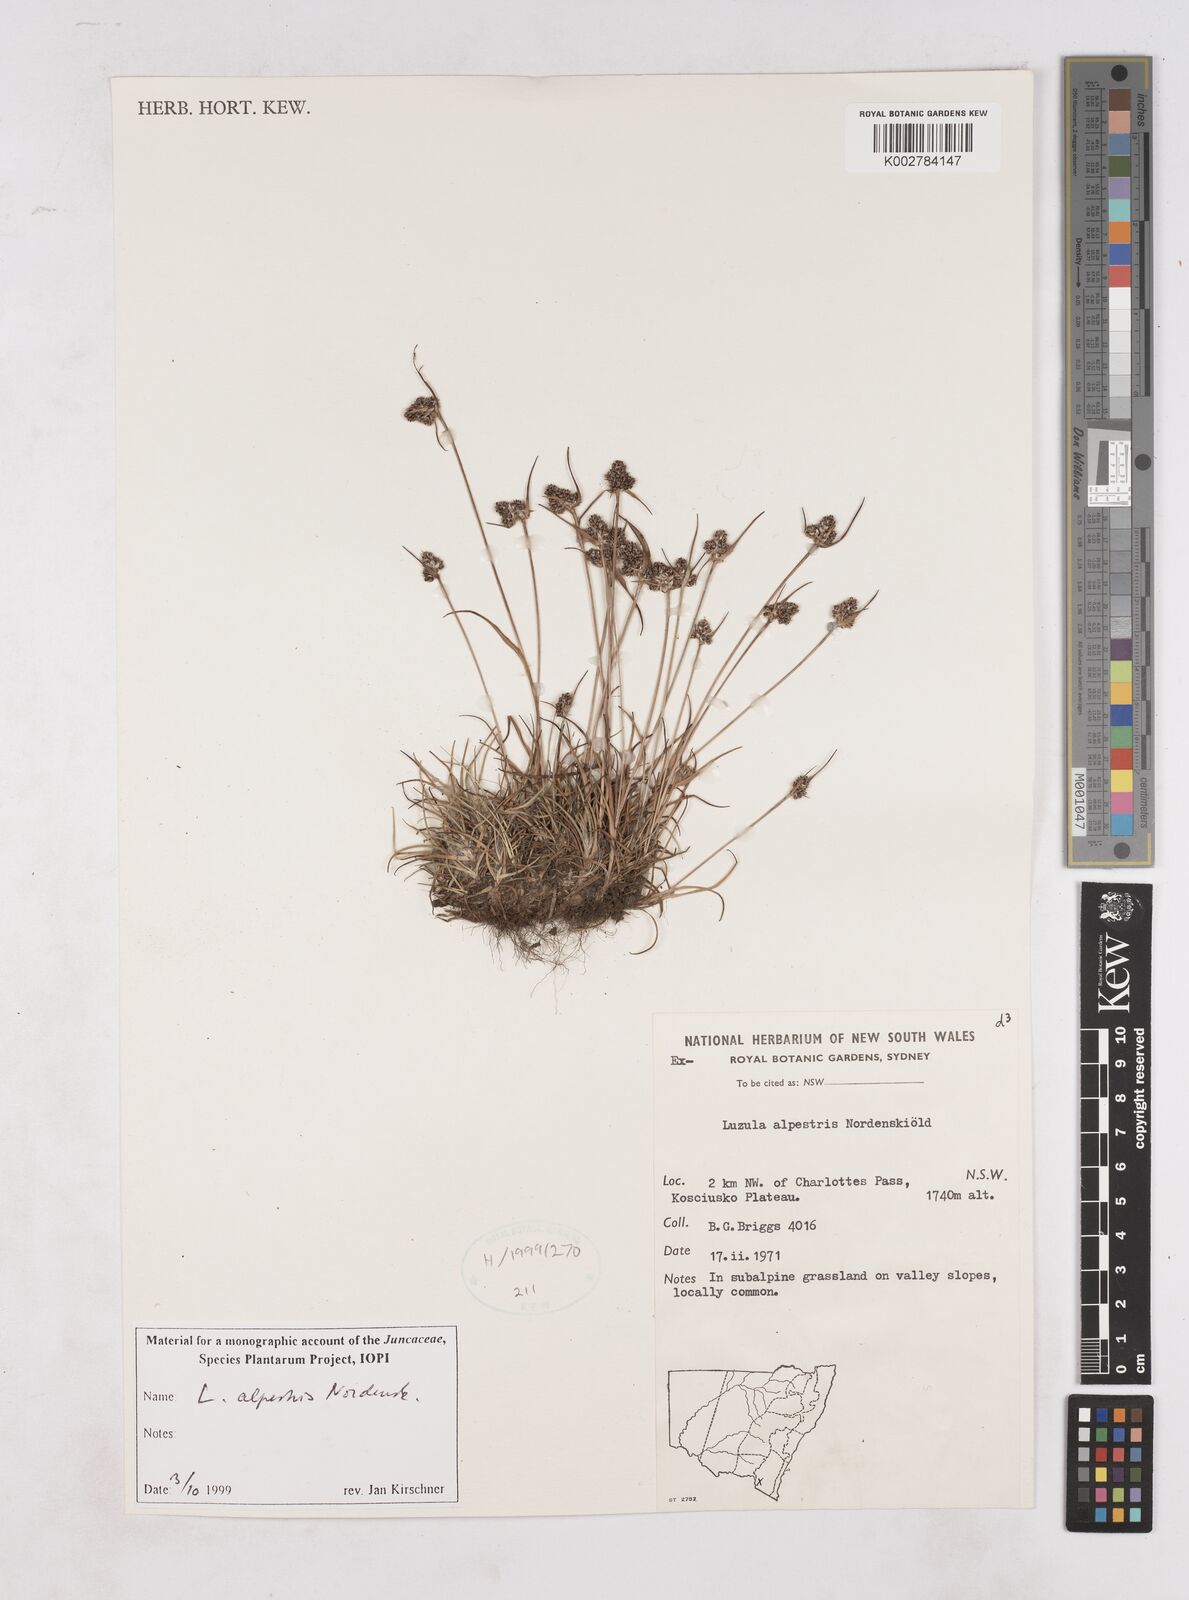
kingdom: Plantae
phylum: Tracheophyta
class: Liliopsida
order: Poales
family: Juncaceae
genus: Luzula
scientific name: Luzula alpestris
